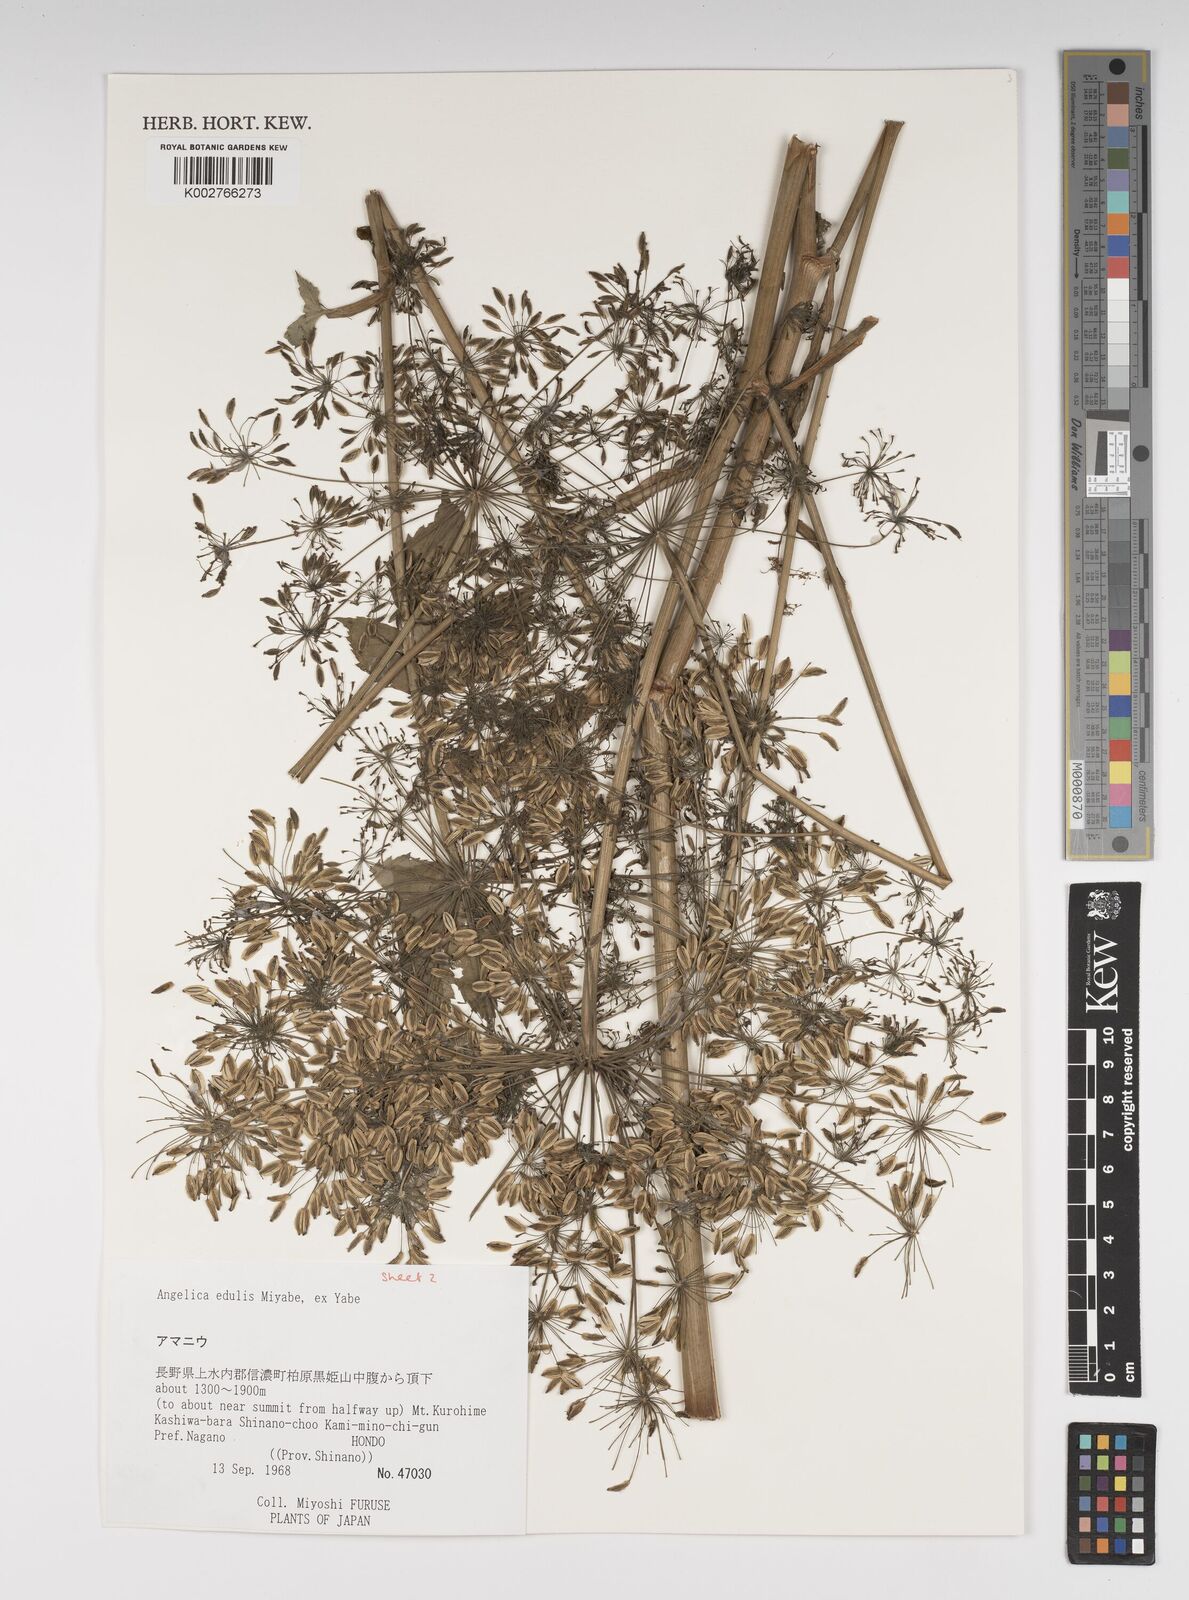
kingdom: Plantae
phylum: Tracheophyta
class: Magnoliopsida
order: Apiales
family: Apiaceae
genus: Angelica
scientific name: Angelica edulis
